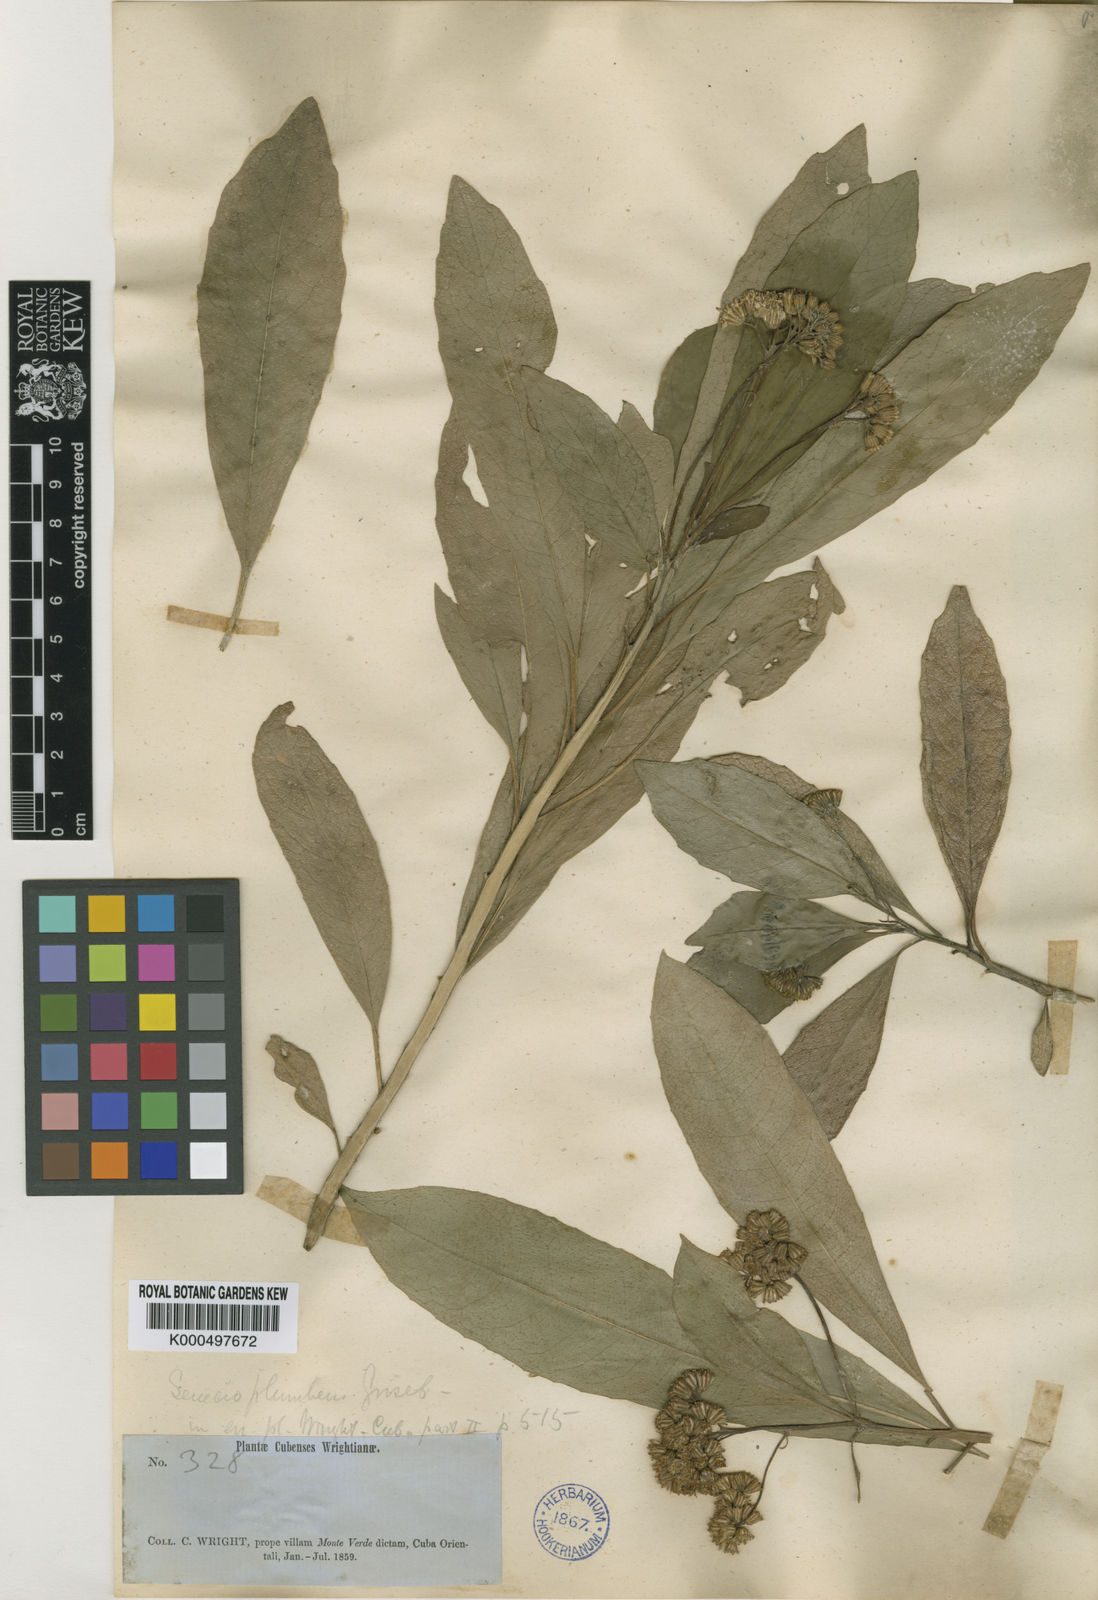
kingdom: Plantae
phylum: Tracheophyta
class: Magnoliopsida
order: Asterales
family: Asteraceae
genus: Lundinia
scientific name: Lundinia plumbea
